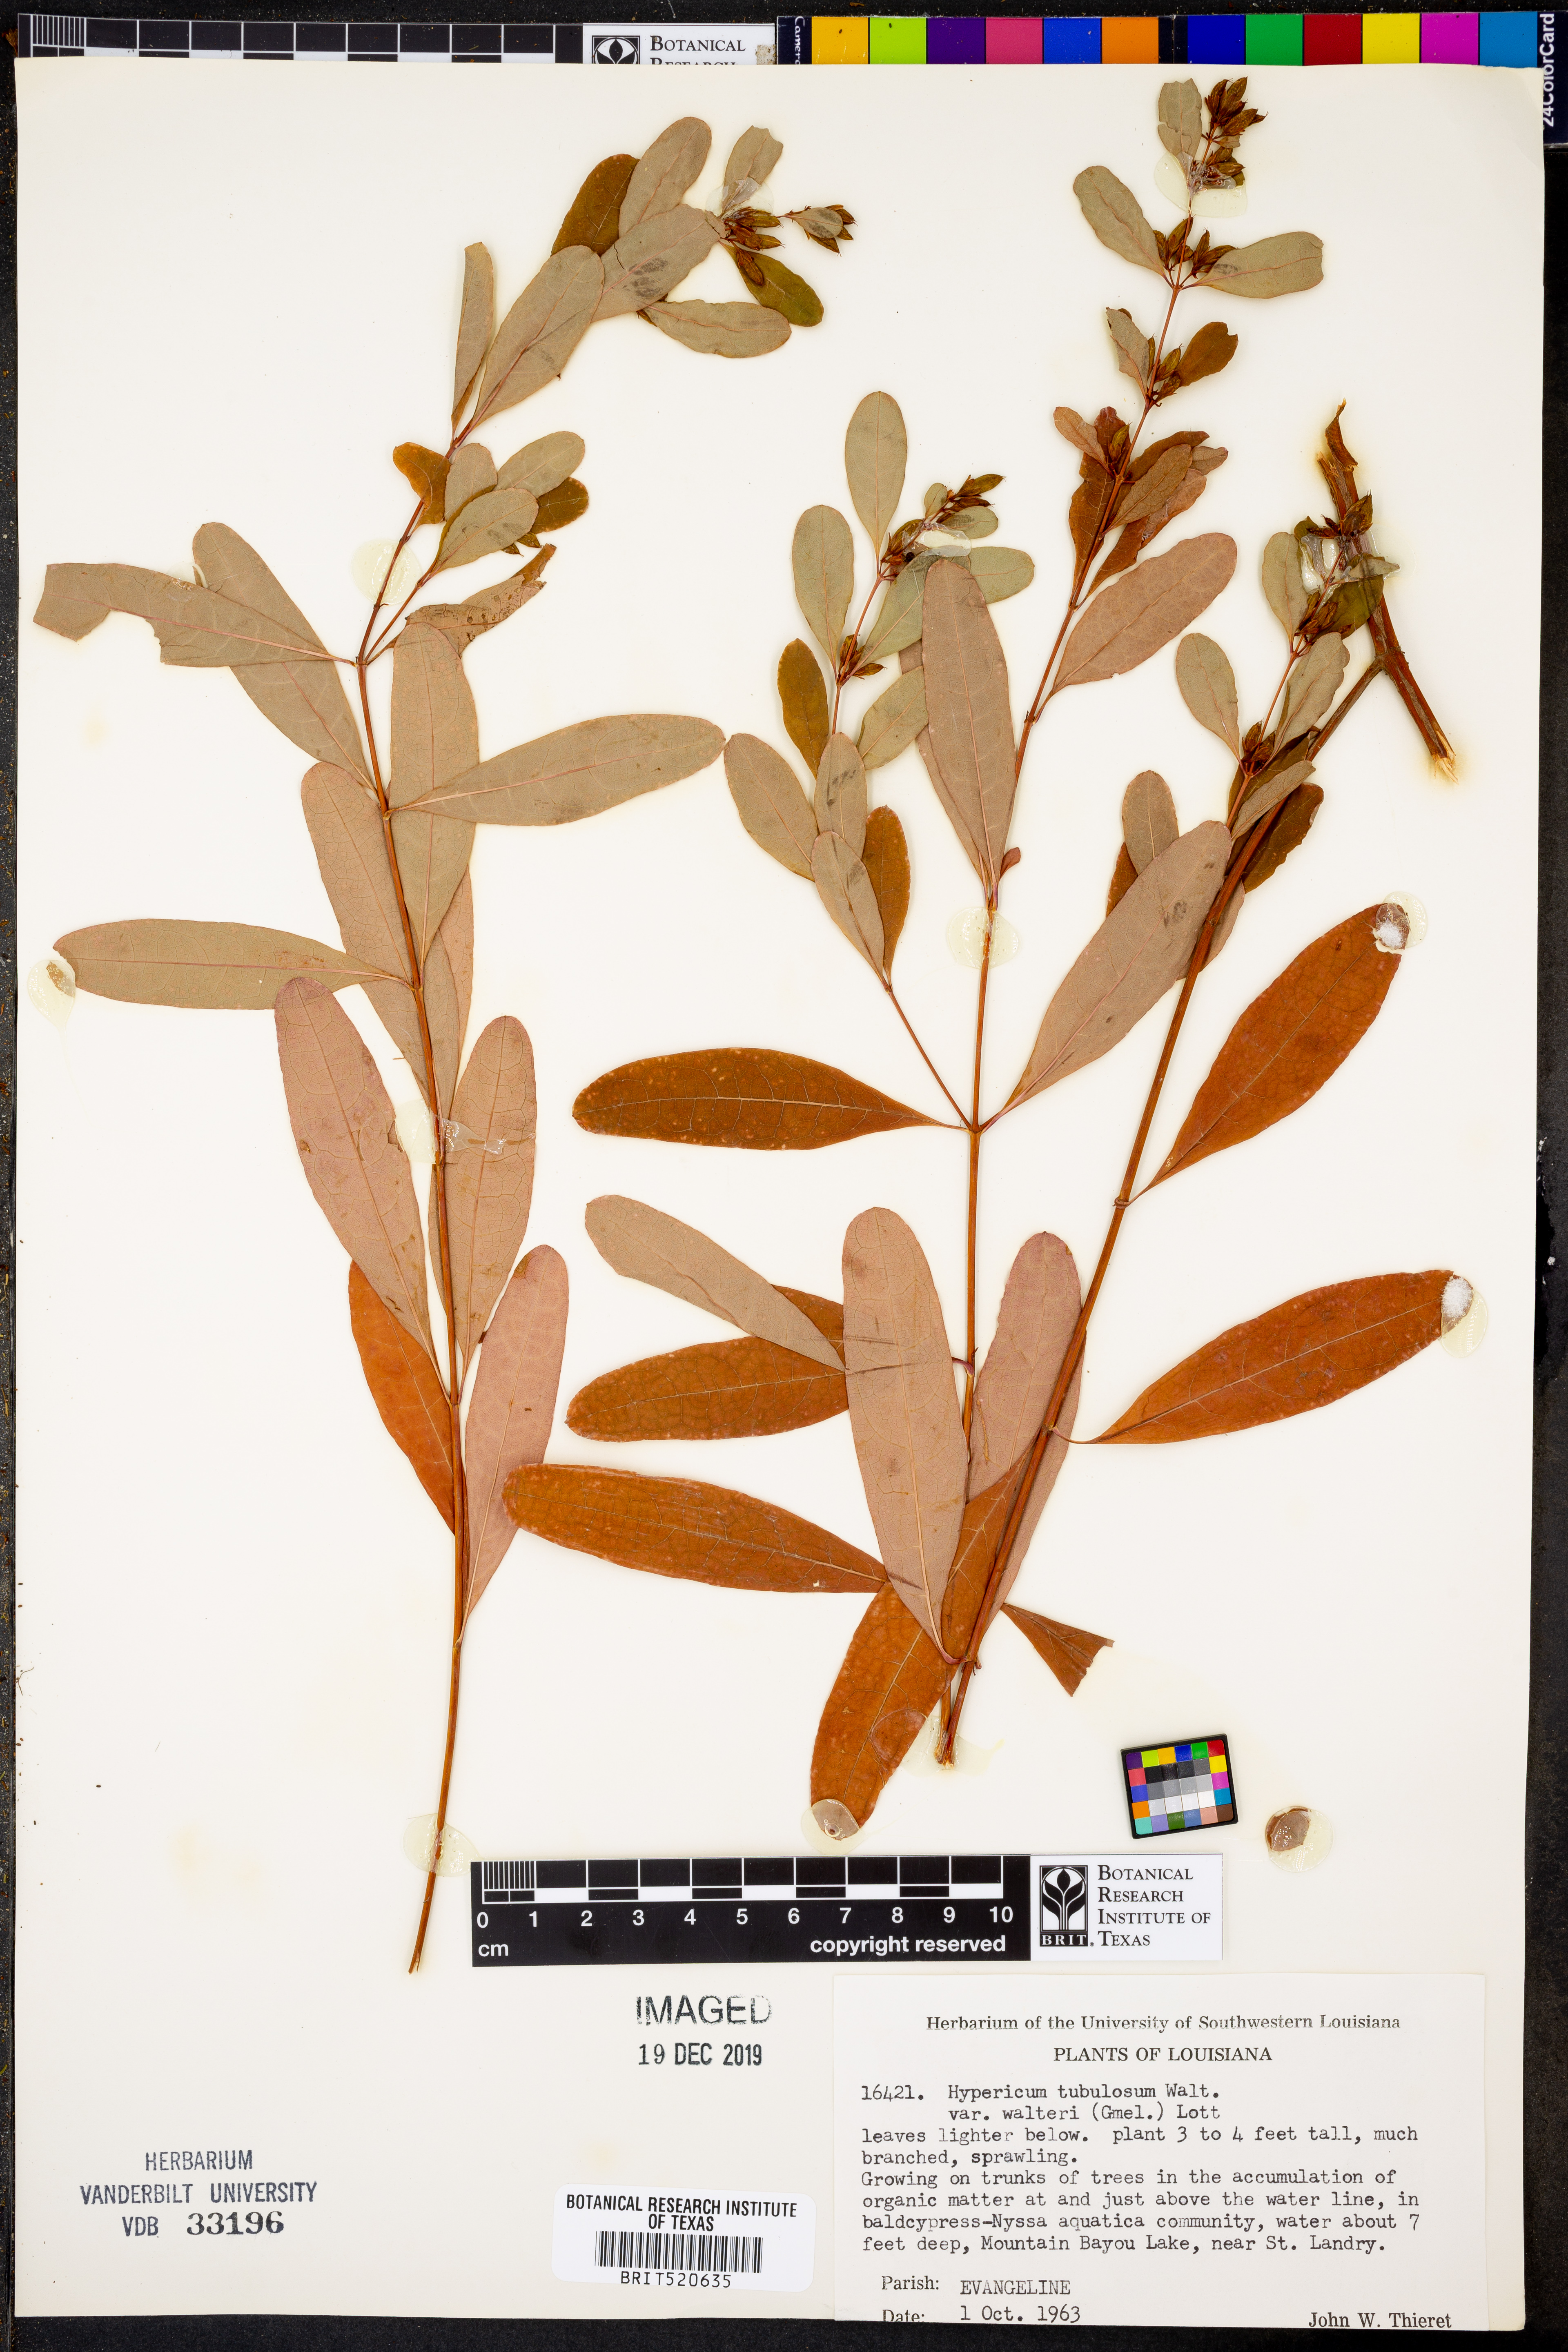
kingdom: Plantae
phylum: Tracheophyta
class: Magnoliopsida
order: Malpighiales
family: Hypericaceae
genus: Triadenum
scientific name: Triadenum tubulosum
